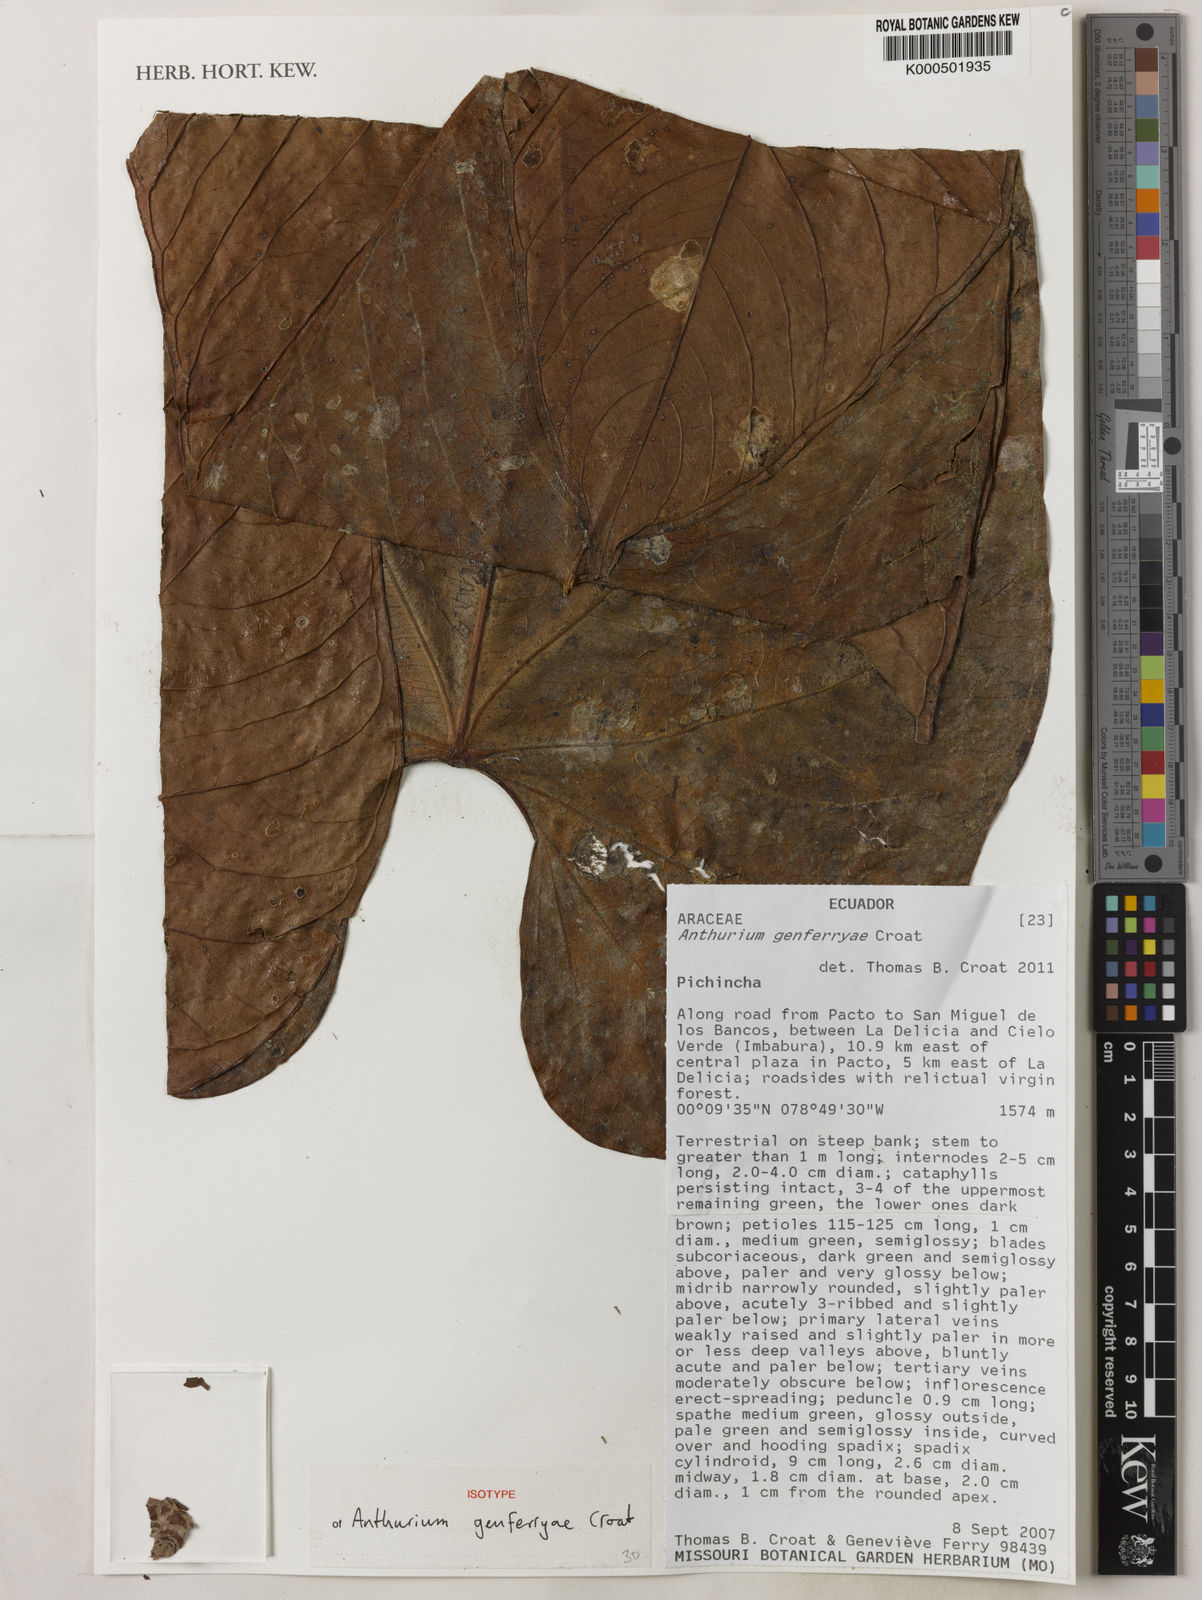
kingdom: Plantae
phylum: Tracheophyta
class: Liliopsida
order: Alismatales
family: Araceae
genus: Anthurium
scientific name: Anthurium genferryae
